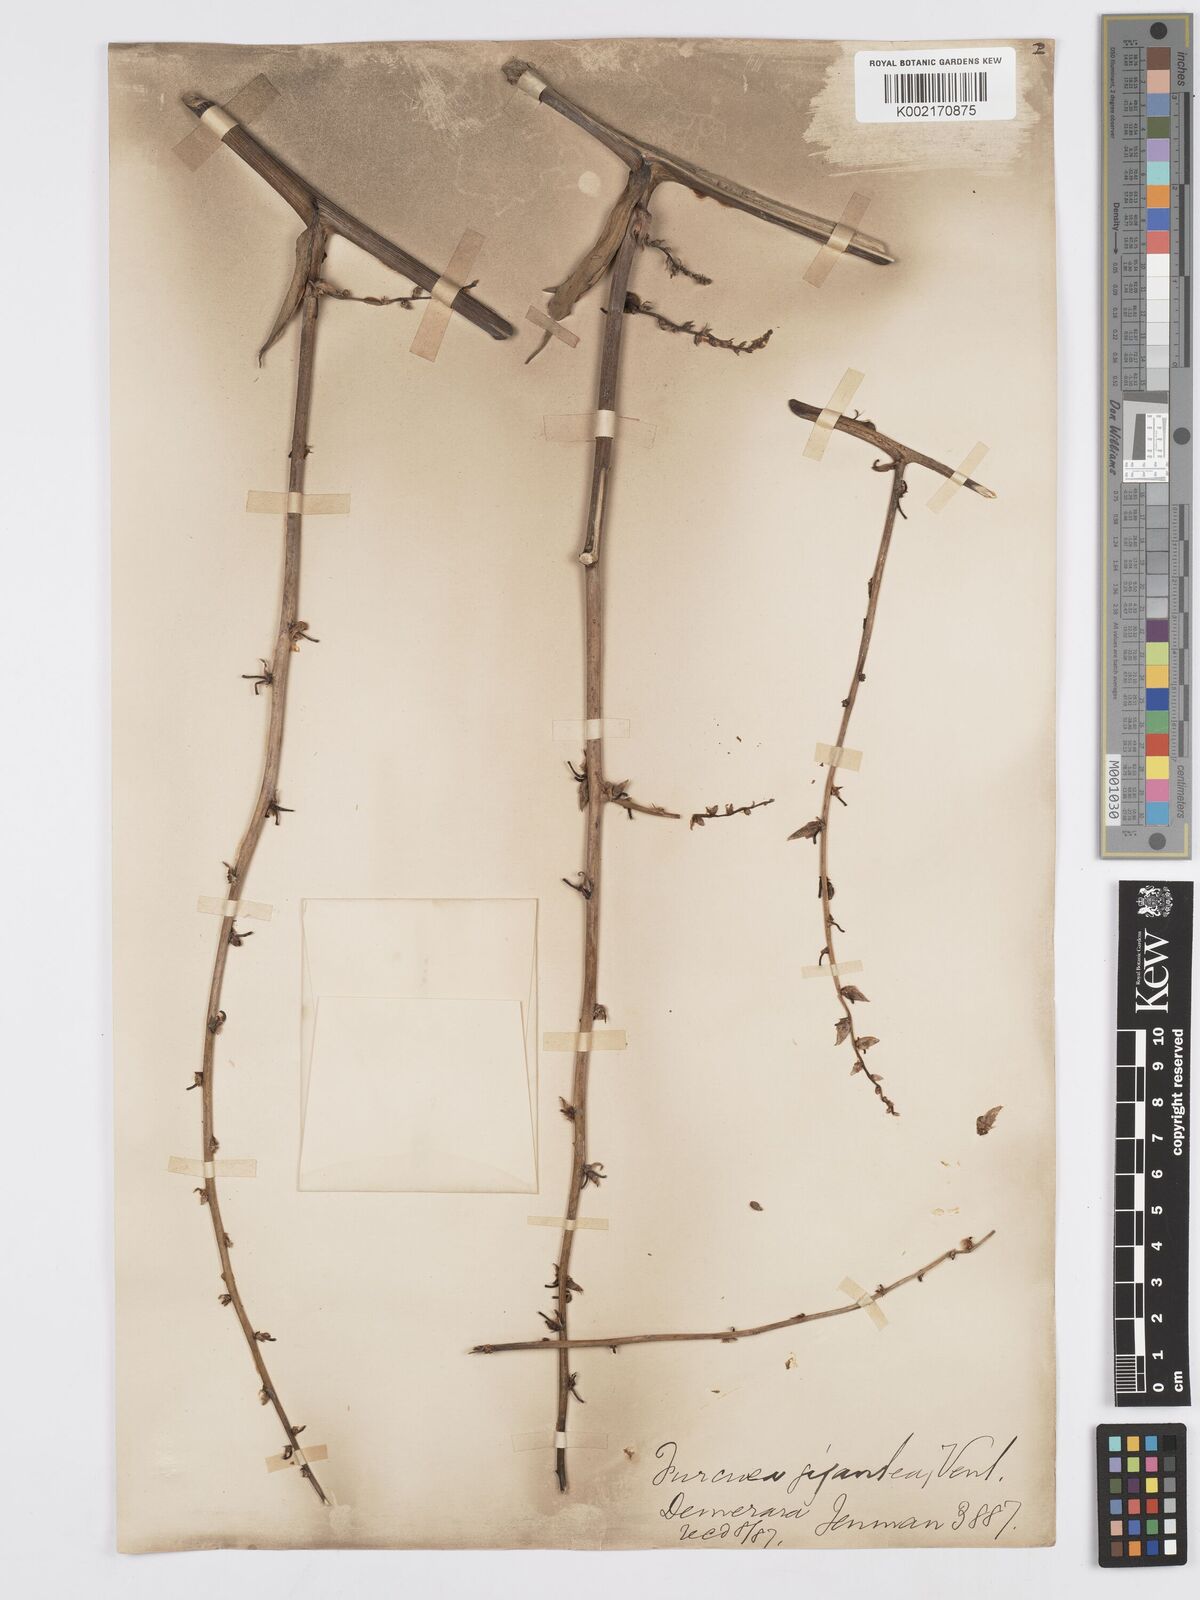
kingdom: Plantae
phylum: Tracheophyta
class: Liliopsida
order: Asparagales
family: Asparagaceae
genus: Furcraea
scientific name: Furcraea foetida
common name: Mauritius hemp
